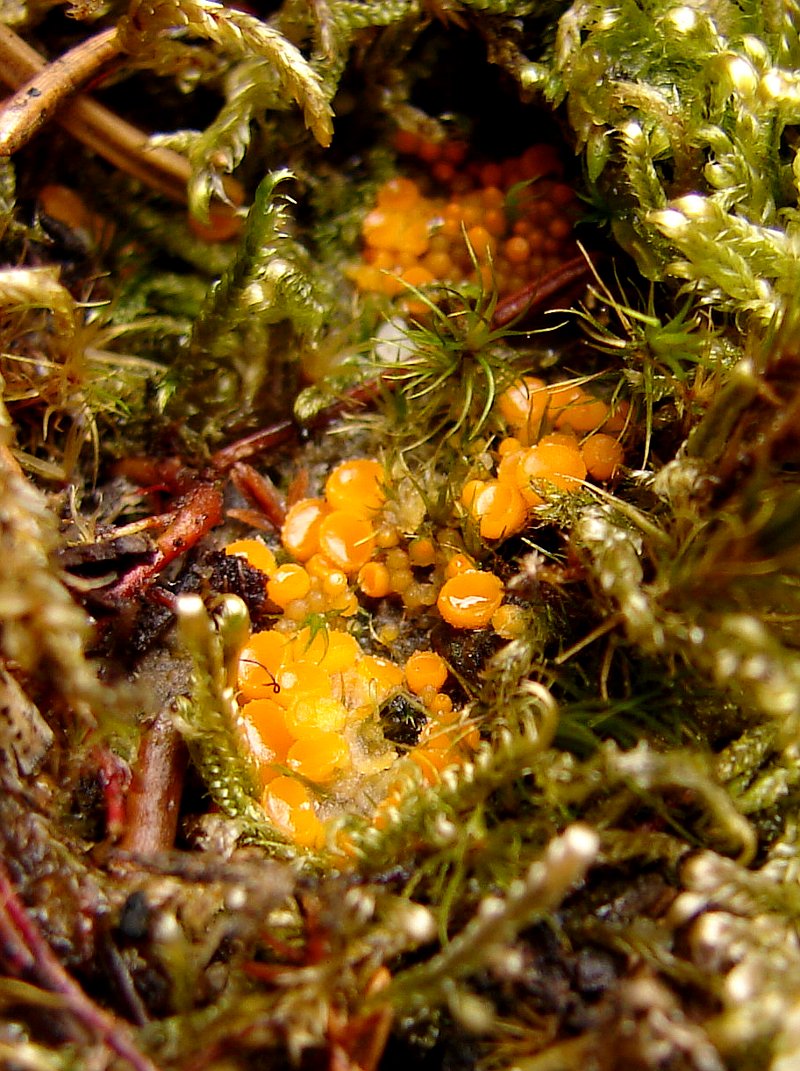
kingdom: Fungi
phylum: Ascomycota
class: Pezizomycetes
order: Pezizales
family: Pyronemataceae
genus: Byssonectria
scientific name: Byssonectria terrestris
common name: hjortebæger
